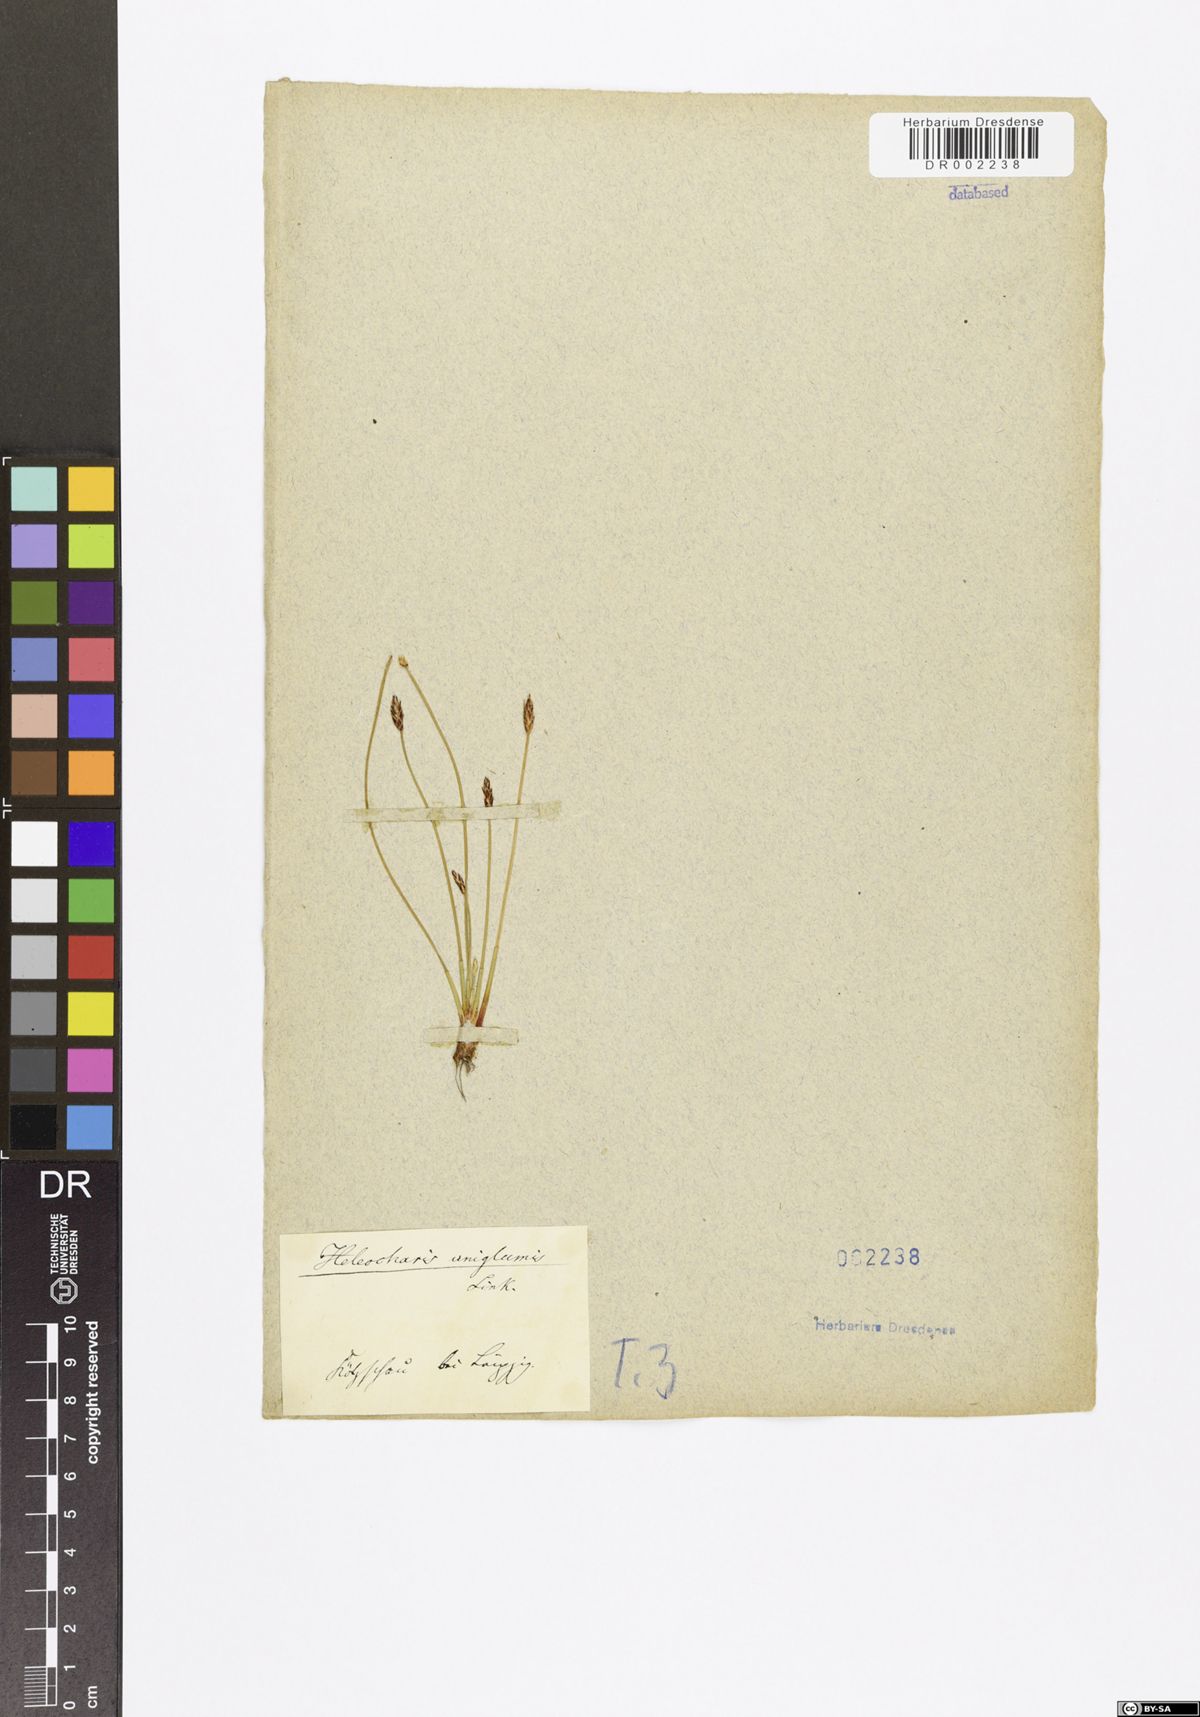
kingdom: Plantae
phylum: Tracheophyta
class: Liliopsida
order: Poales
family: Cyperaceae
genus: Eleocharis
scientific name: Eleocharis uniglumis
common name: Slender spike-rush
